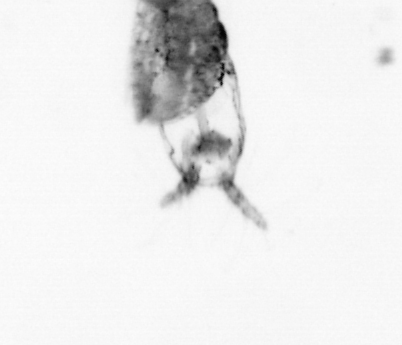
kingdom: Animalia
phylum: Arthropoda
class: Copepoda
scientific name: Copepoda
